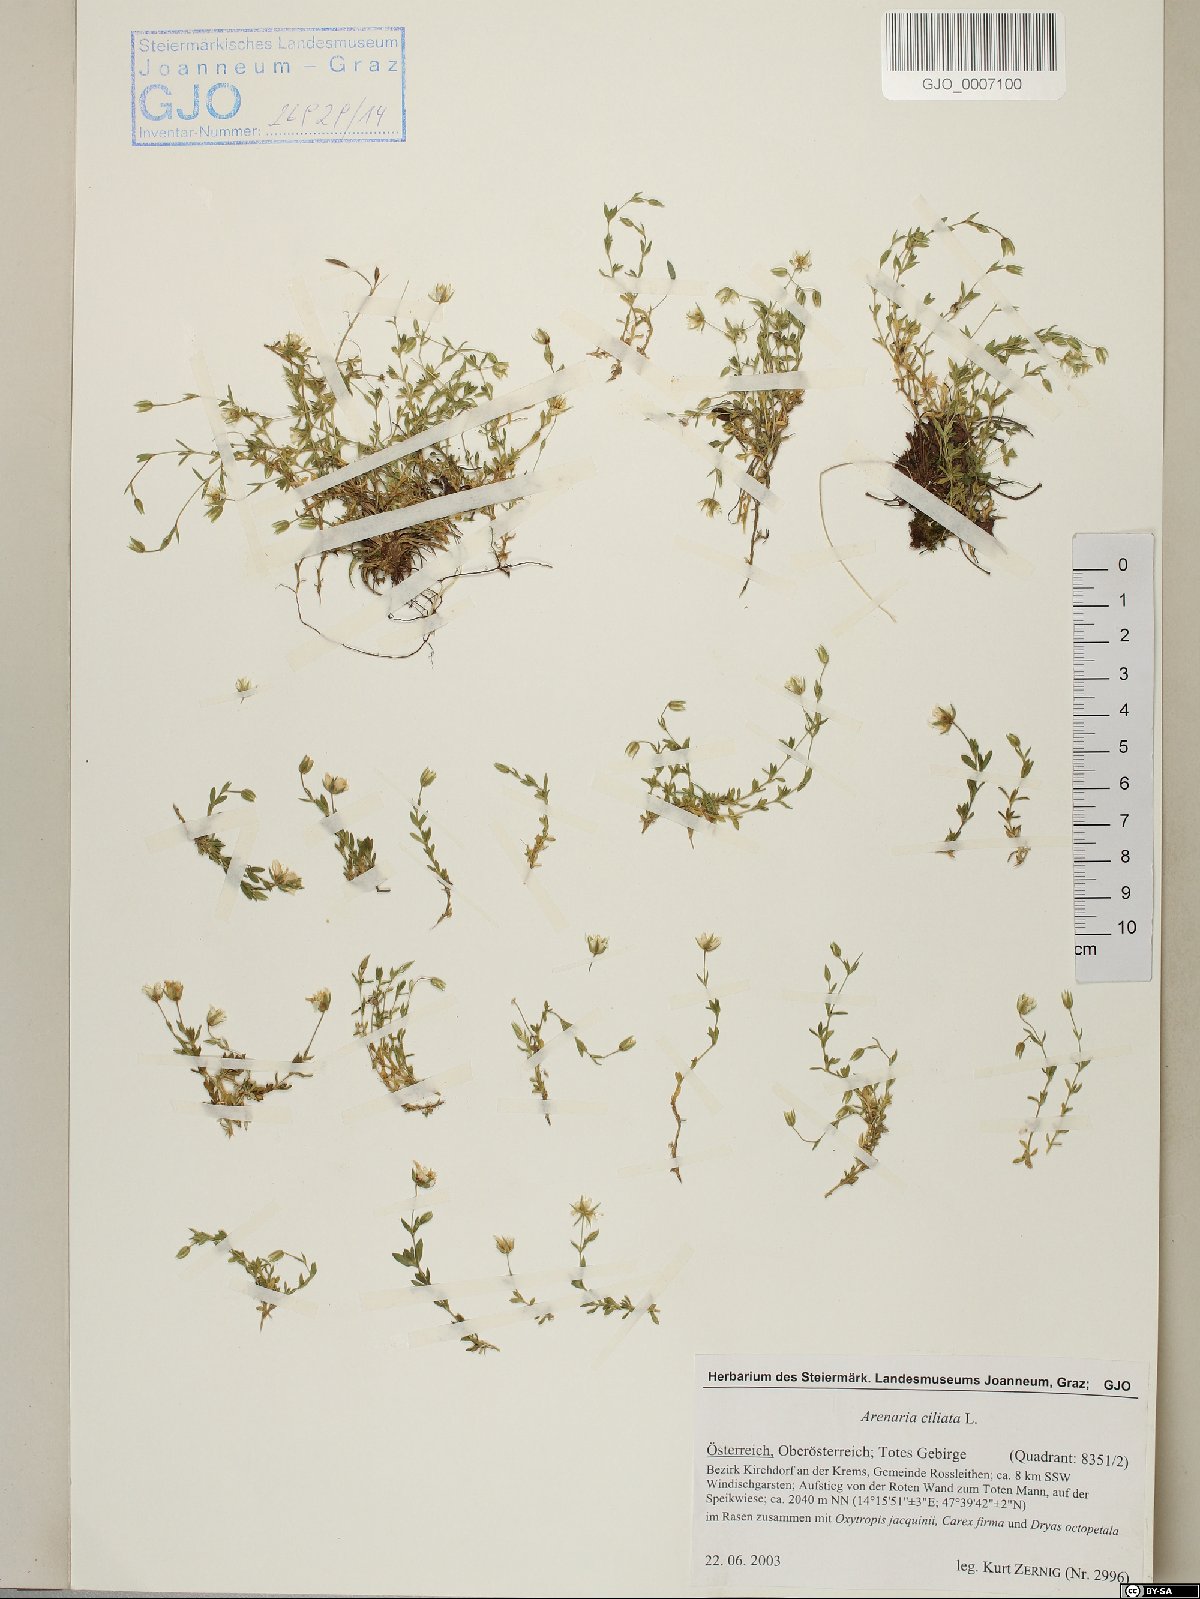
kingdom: Plantae
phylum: Tracheophyta
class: Magnoliopsida
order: Caryophyllales
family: Caryophyllaceae
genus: Arenaria
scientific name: Arenaria ciliata
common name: Fringed sandwort
